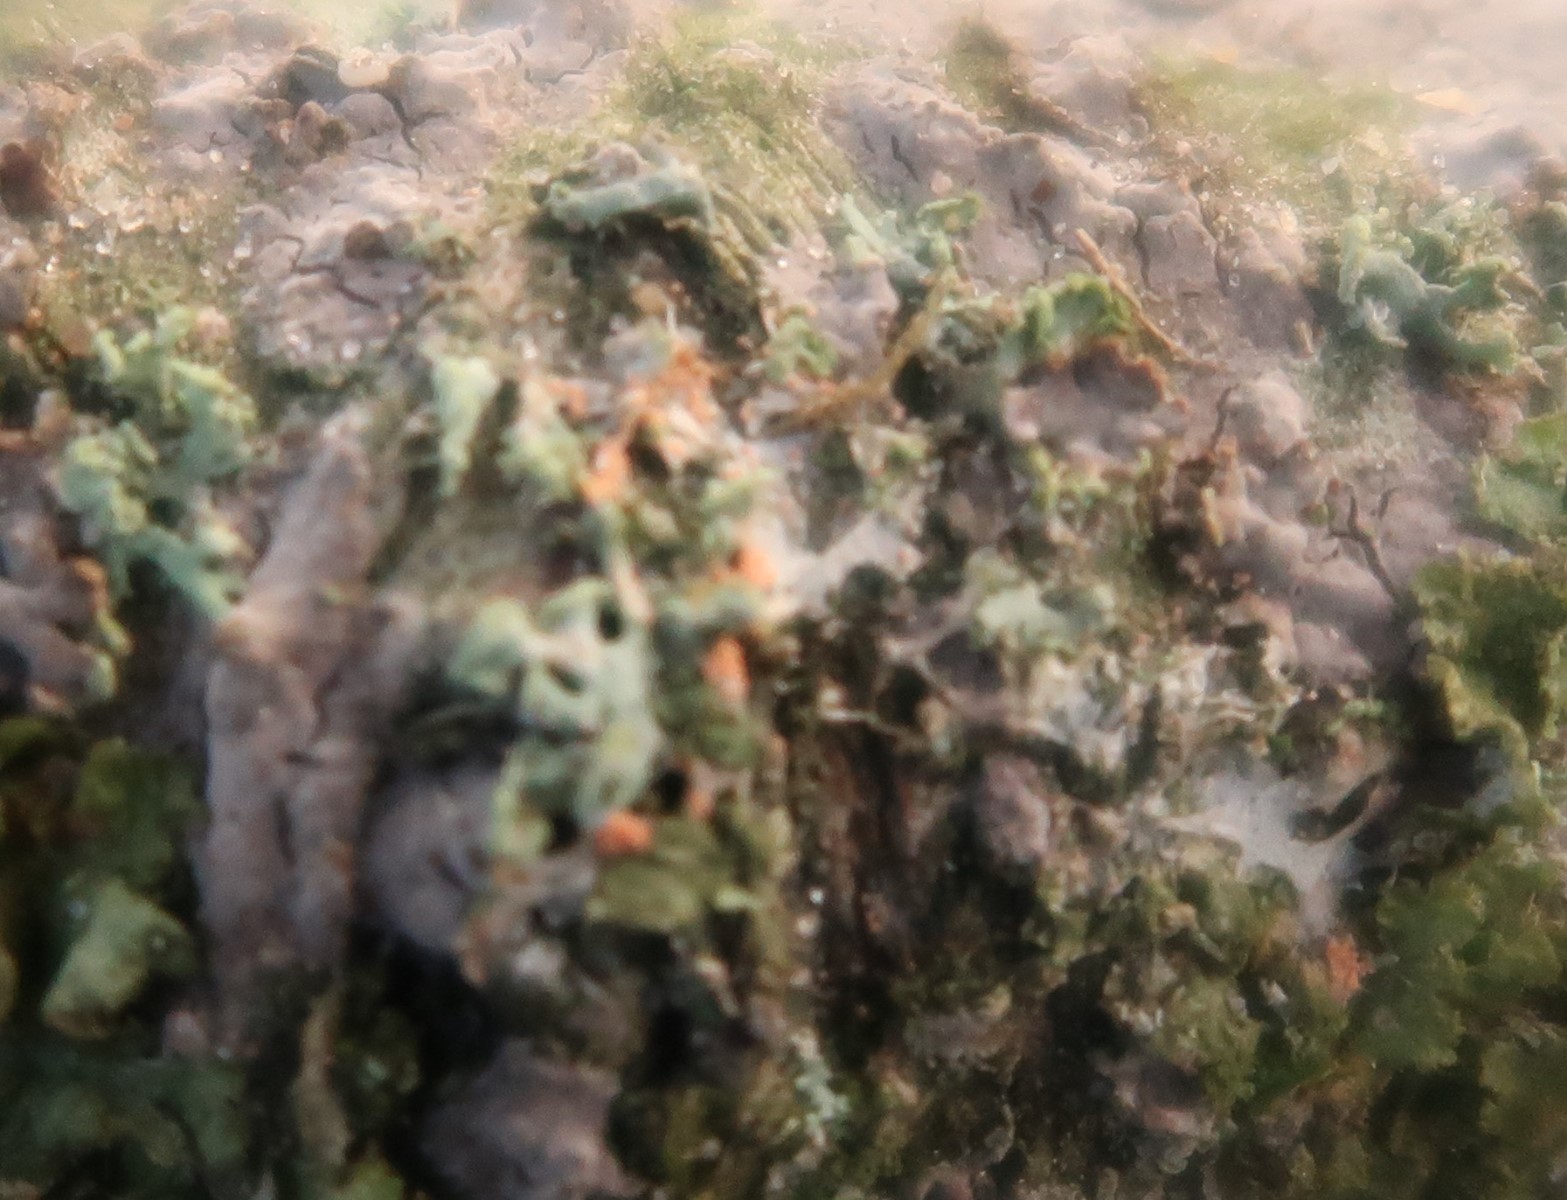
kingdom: Fungi
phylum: Basidiomycota
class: Agaricomycetes
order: Corticiales
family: Corticiaceae
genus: Erythricium
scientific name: Erythricium aurantiacum
